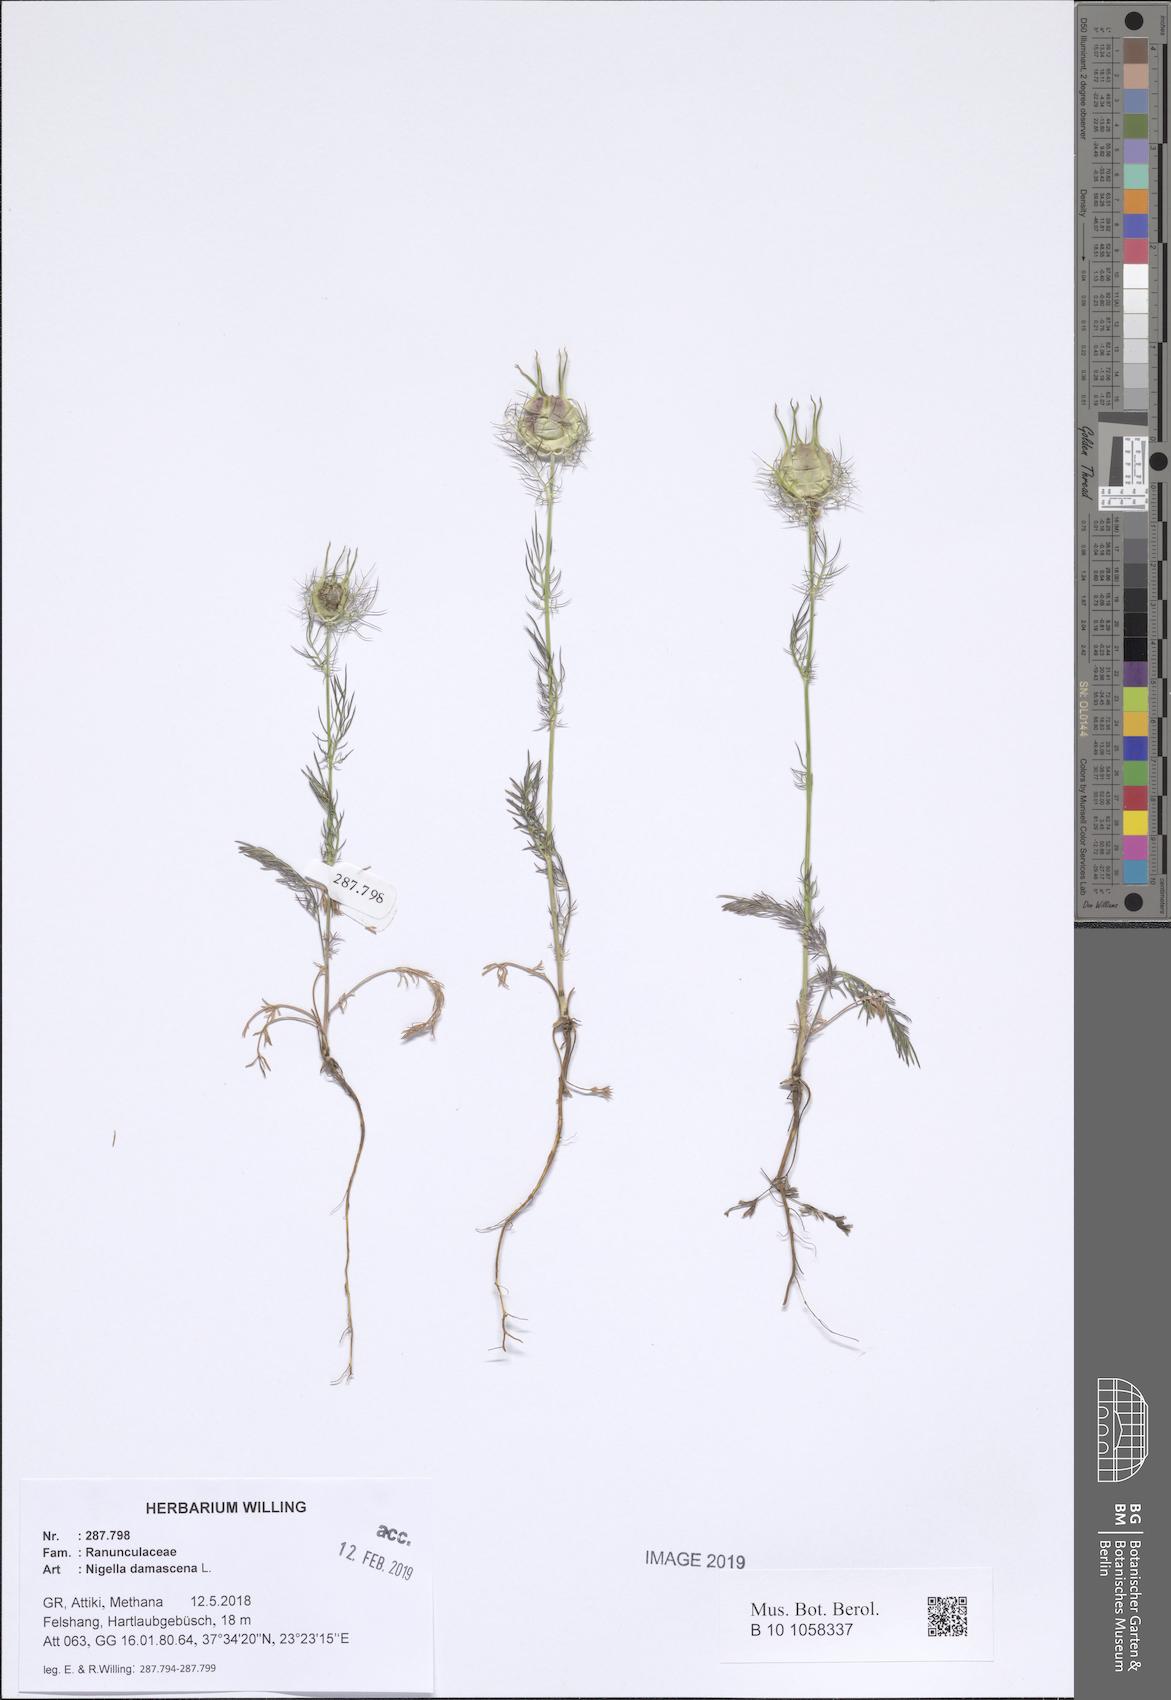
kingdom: Plantae
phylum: Tracheophyta
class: Magnoliopsida
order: Ranunculales
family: Ranunculaceae
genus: Nigella
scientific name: Nigella damascena
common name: Love-in-a-mist
